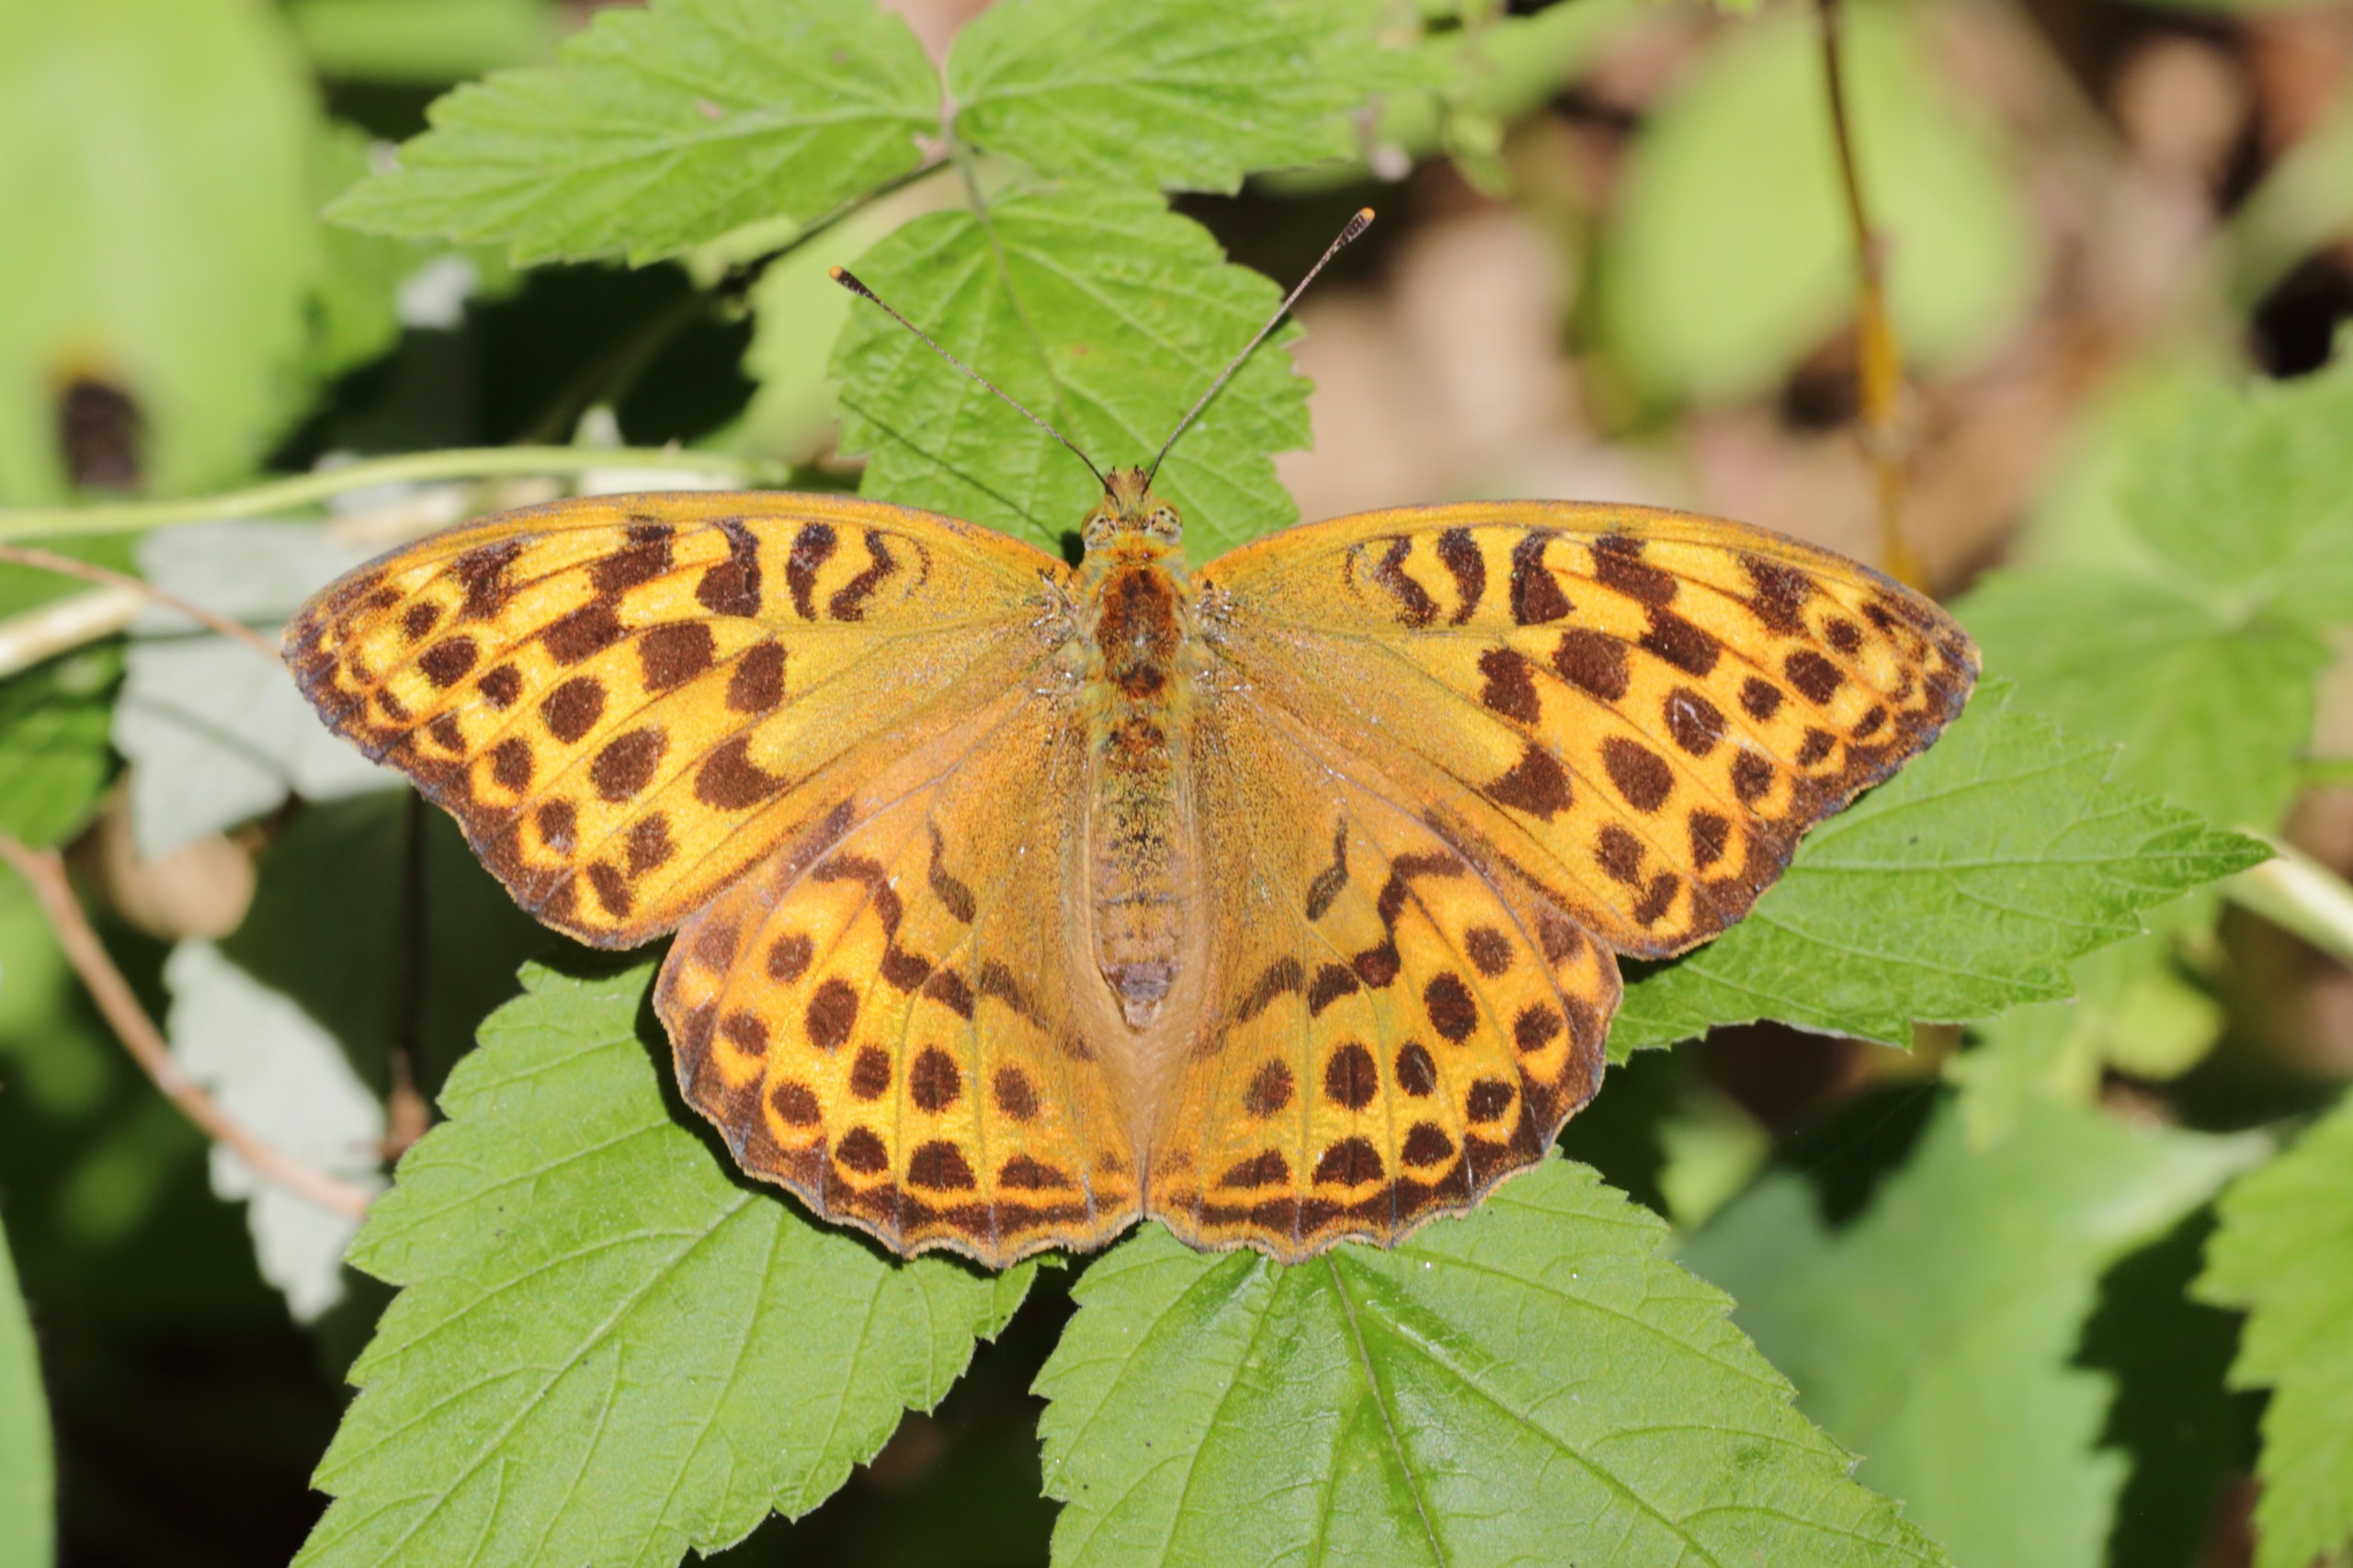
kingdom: Animalia
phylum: Arthropoda
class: Insecta
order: Lepidoptera
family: Nymphalidae
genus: Argynnis
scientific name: Argynnis paphia
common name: Kejserkåbe
